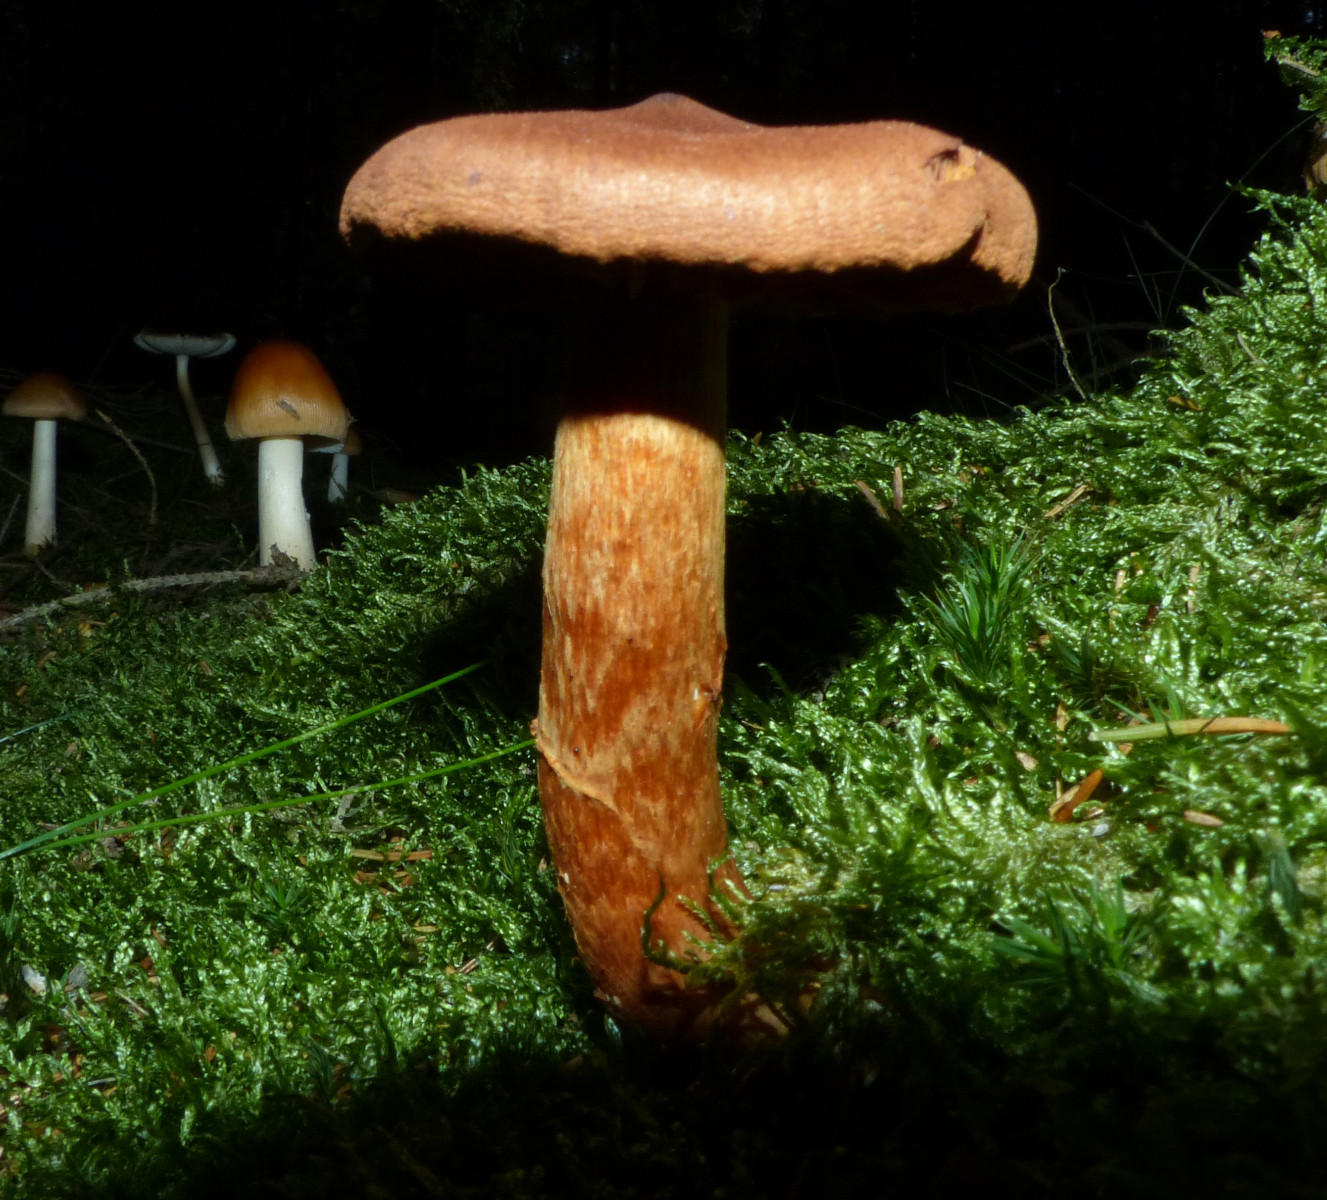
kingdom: Fungi
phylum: Basidiomycota
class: Agaricomycetes
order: Agaricales
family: Cortinariaceae
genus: Cortinarius
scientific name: Cortinarius rubellus
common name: puklet gift-slørhat
